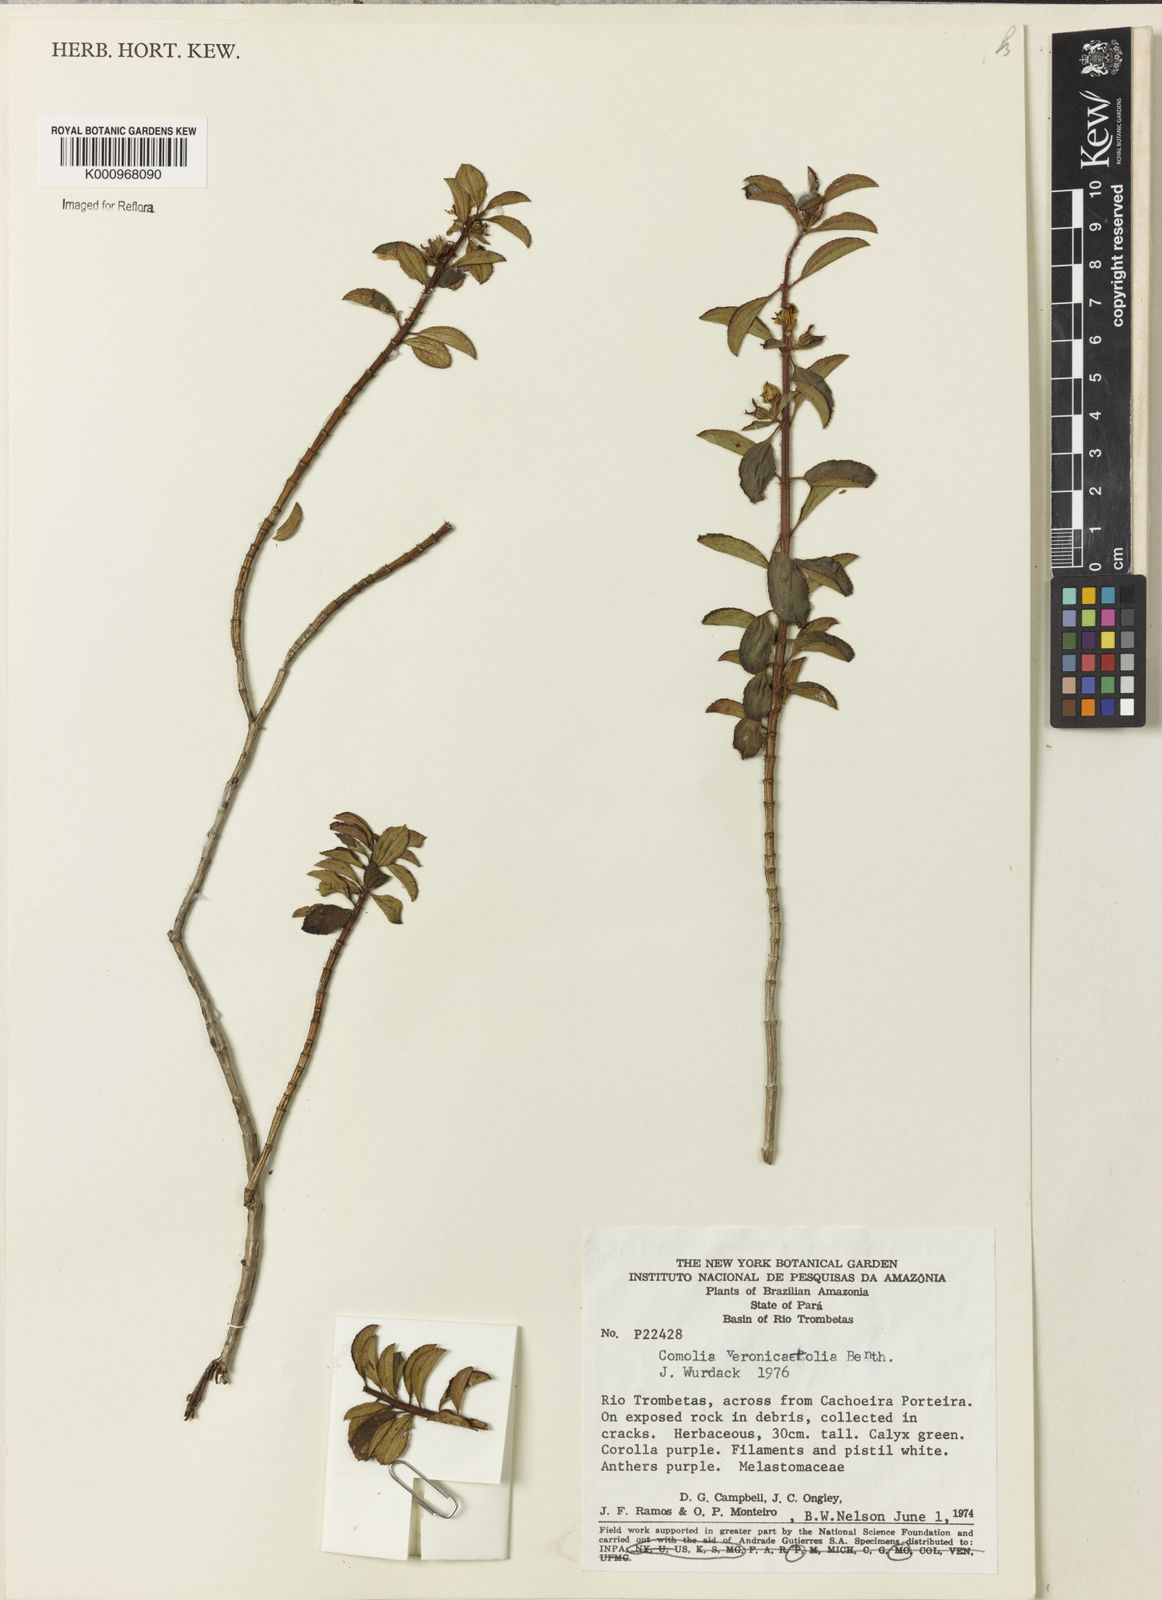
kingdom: Plantae
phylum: Tracheophyta
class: Magnoliopsida
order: Myrtales
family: Melastomataceae
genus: Comolia
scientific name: Comolia villosa
